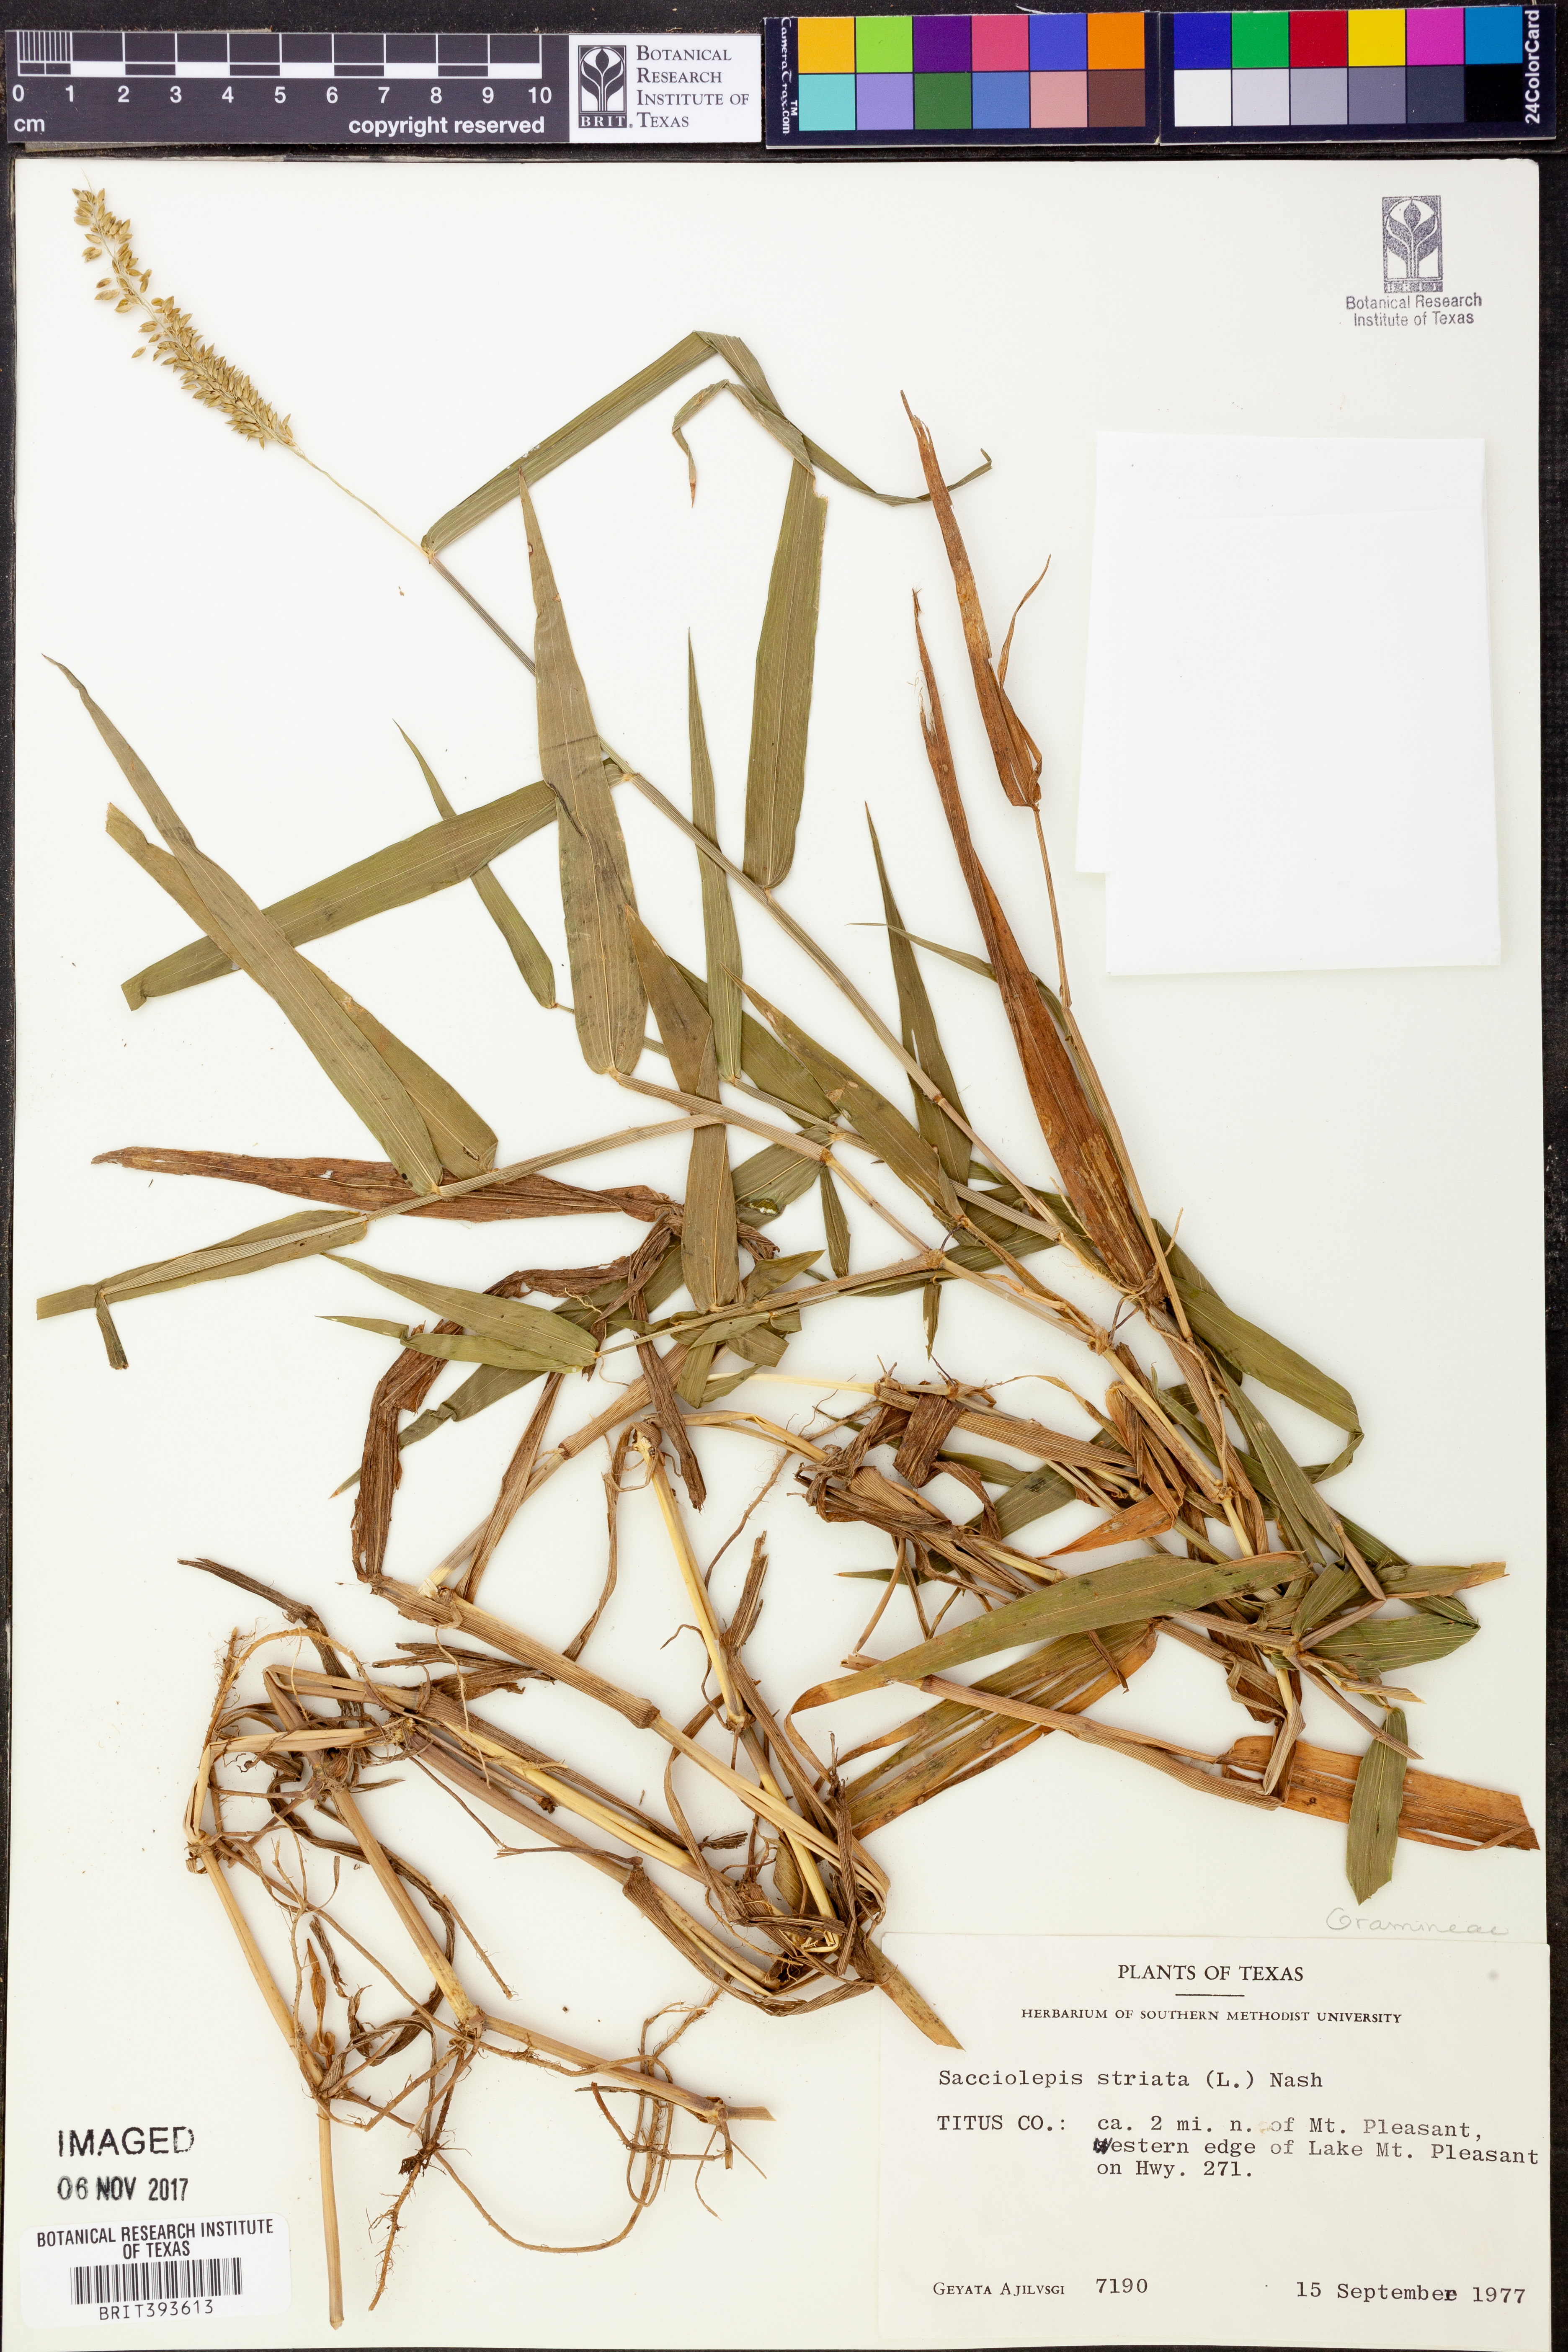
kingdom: Plantae
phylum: Tracheophyta
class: Liliopsida
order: Poales
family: Poaceae
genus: Sacciolepis
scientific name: Sacciolepis striata
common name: American cupscale
